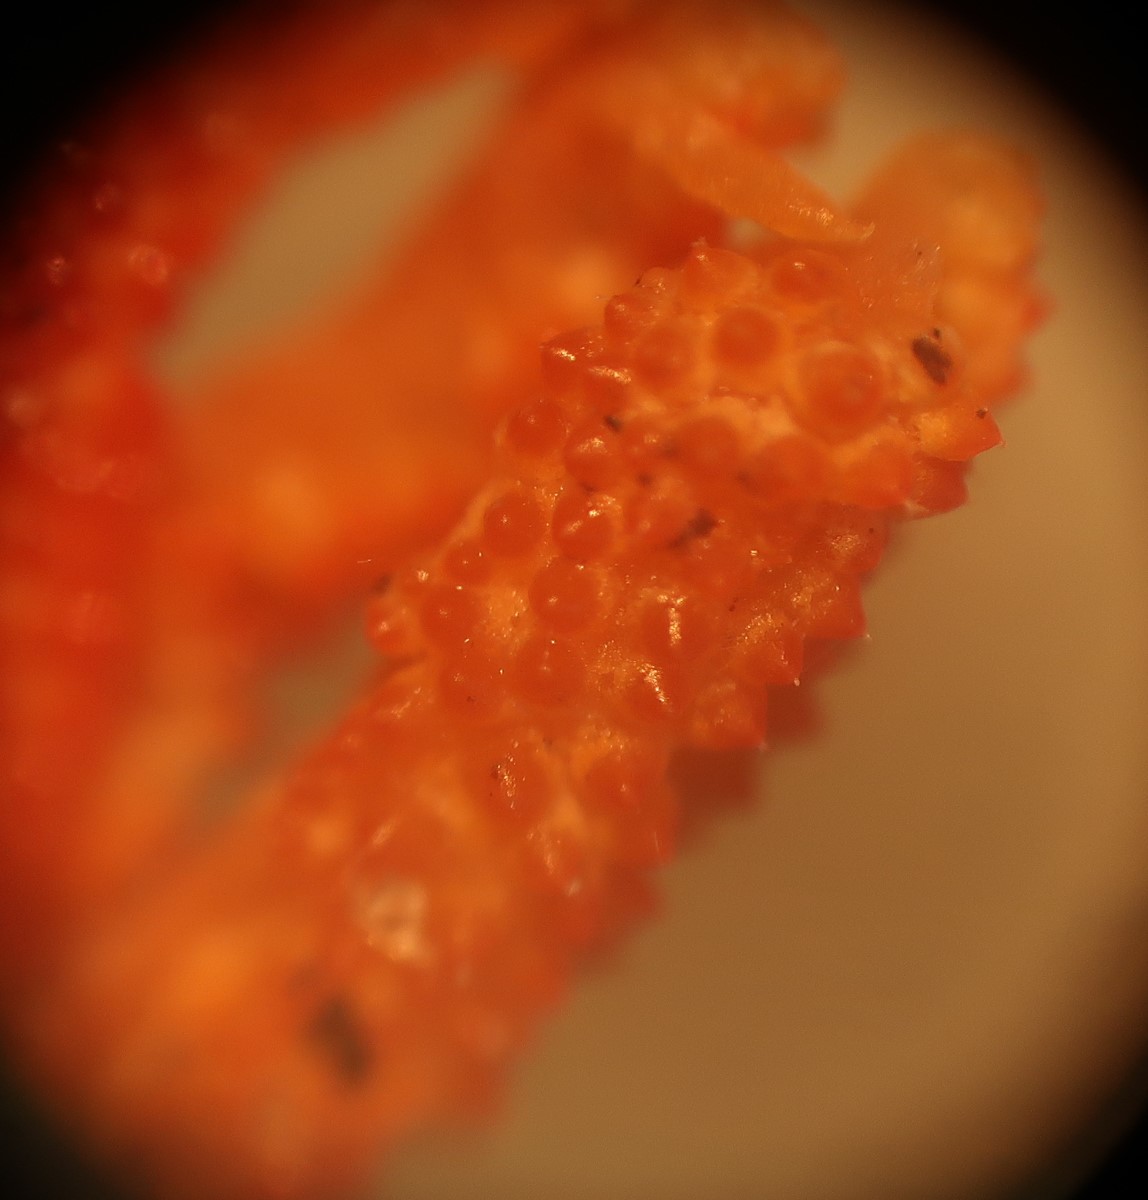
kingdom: Fungi
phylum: Ascomycota
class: Sordariomycetes
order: Hypocreales
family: Cordycipitaceae
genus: Cordyceps
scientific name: Cordyceps militaris
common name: puppe-snyltekølle
